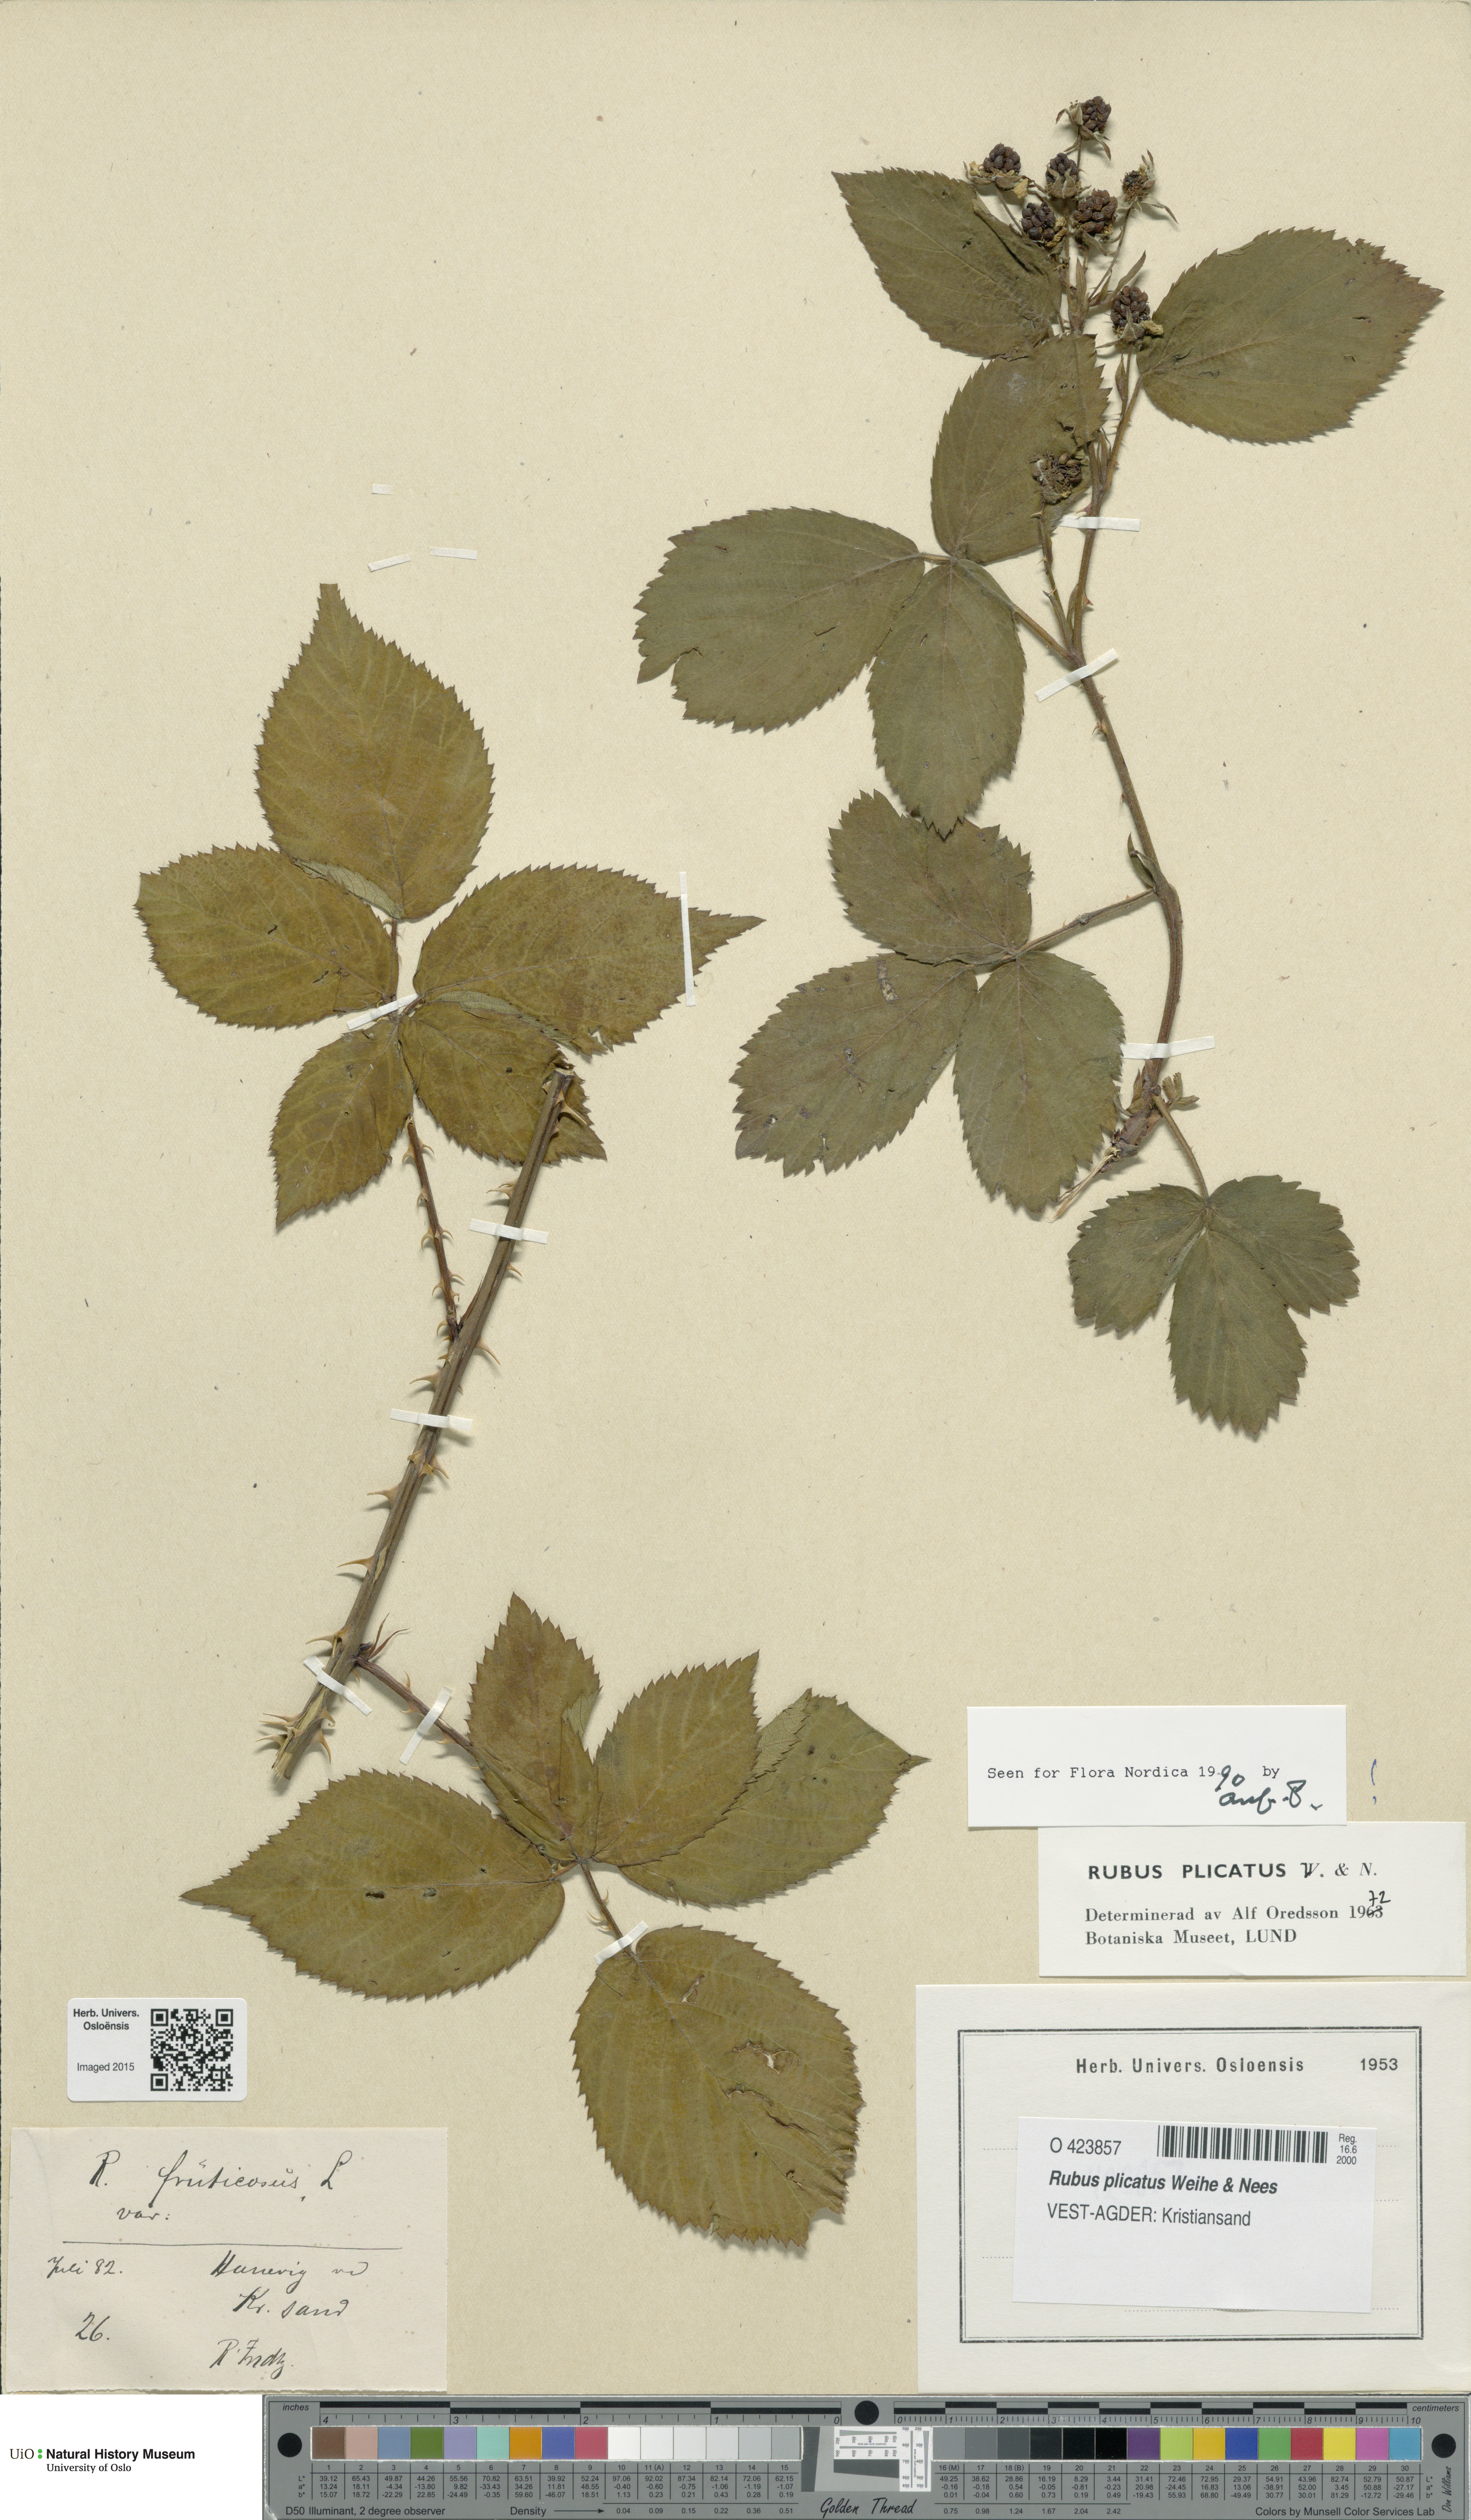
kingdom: Plantae
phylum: Tracheophyta
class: Magnoliopsida
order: Rosales
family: Rosaceae
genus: Rubus
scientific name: Rubus fruticosus
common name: Blackberry, bramble
